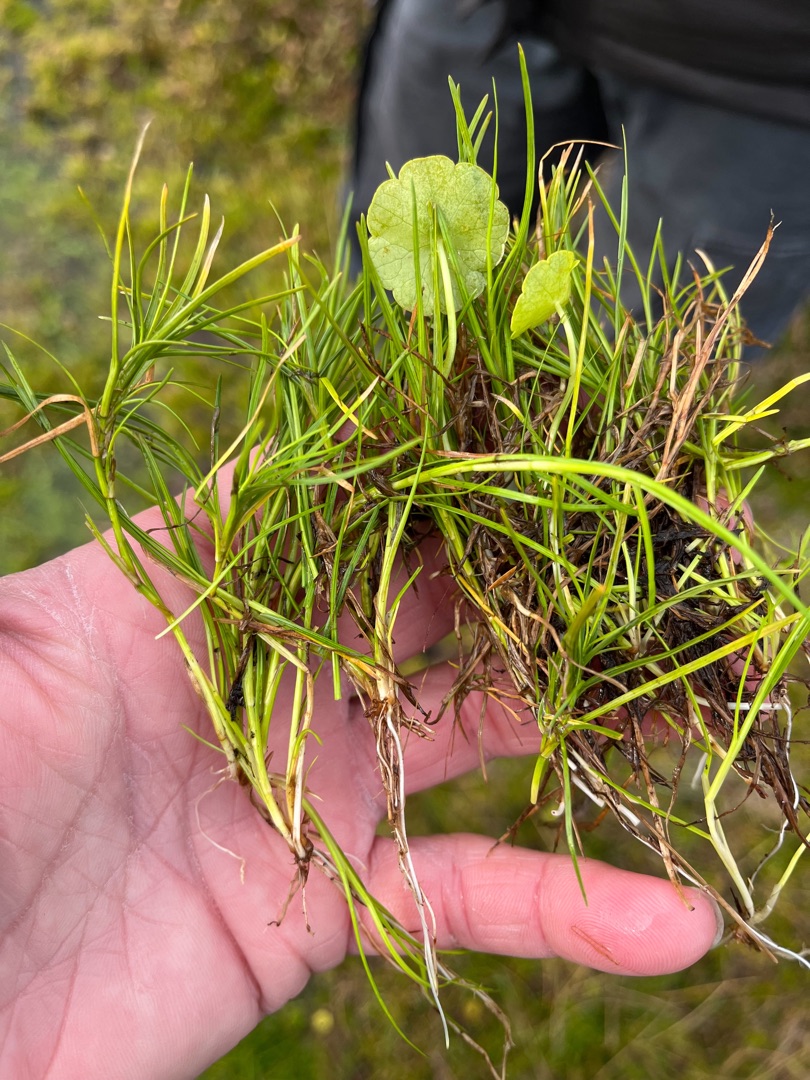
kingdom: Plantae
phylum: Tracheophyta
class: Magnoliopsida
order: Apiales
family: Araliaceae
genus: Hydrocotyle
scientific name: Hydrocotyle vulgaris
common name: Vandnavle
